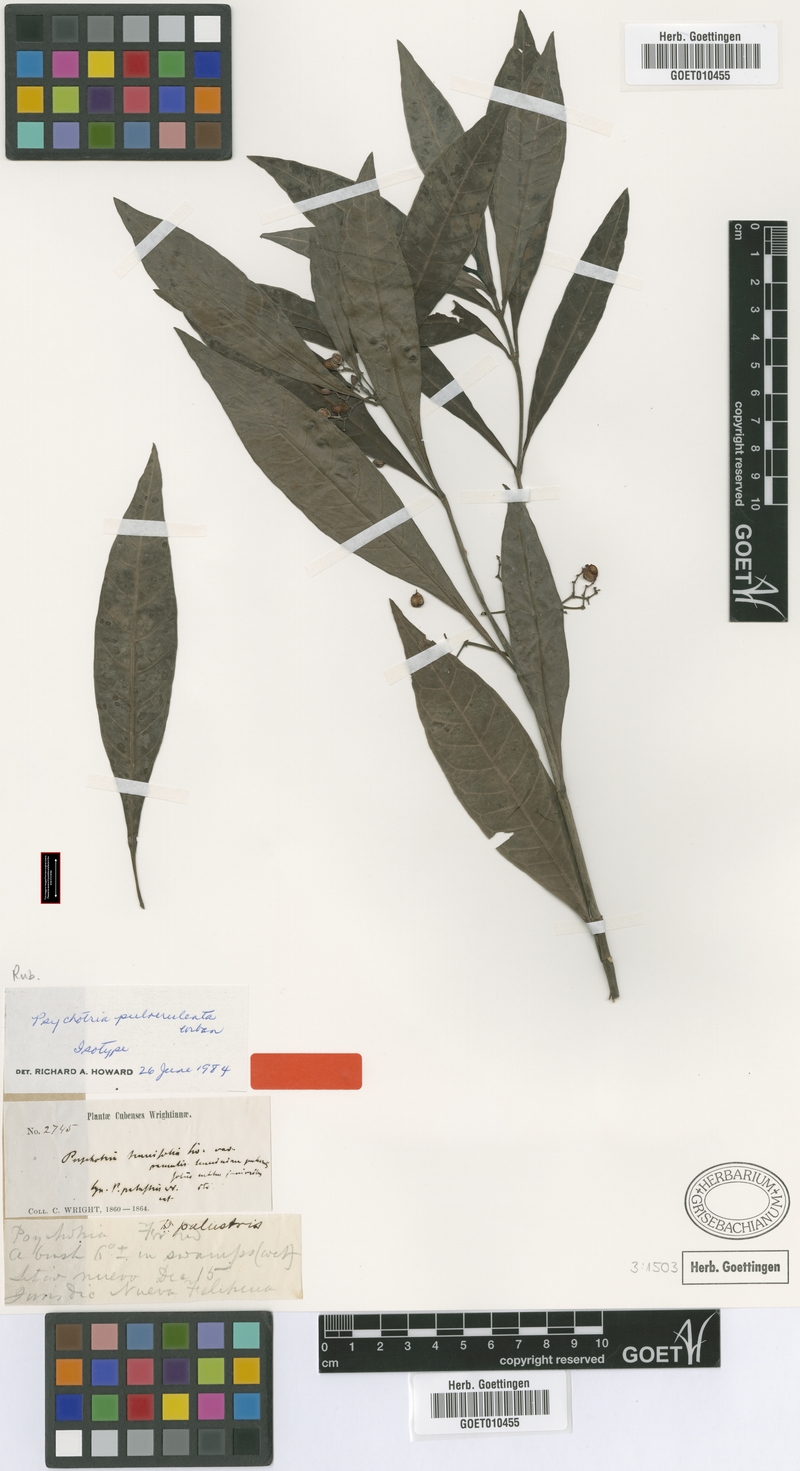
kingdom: Plantae
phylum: Tracheophyta
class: Magnoliopsida
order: Gentianales
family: Rubiaceae
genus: Psychotria
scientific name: Psychotria tenuifolia
